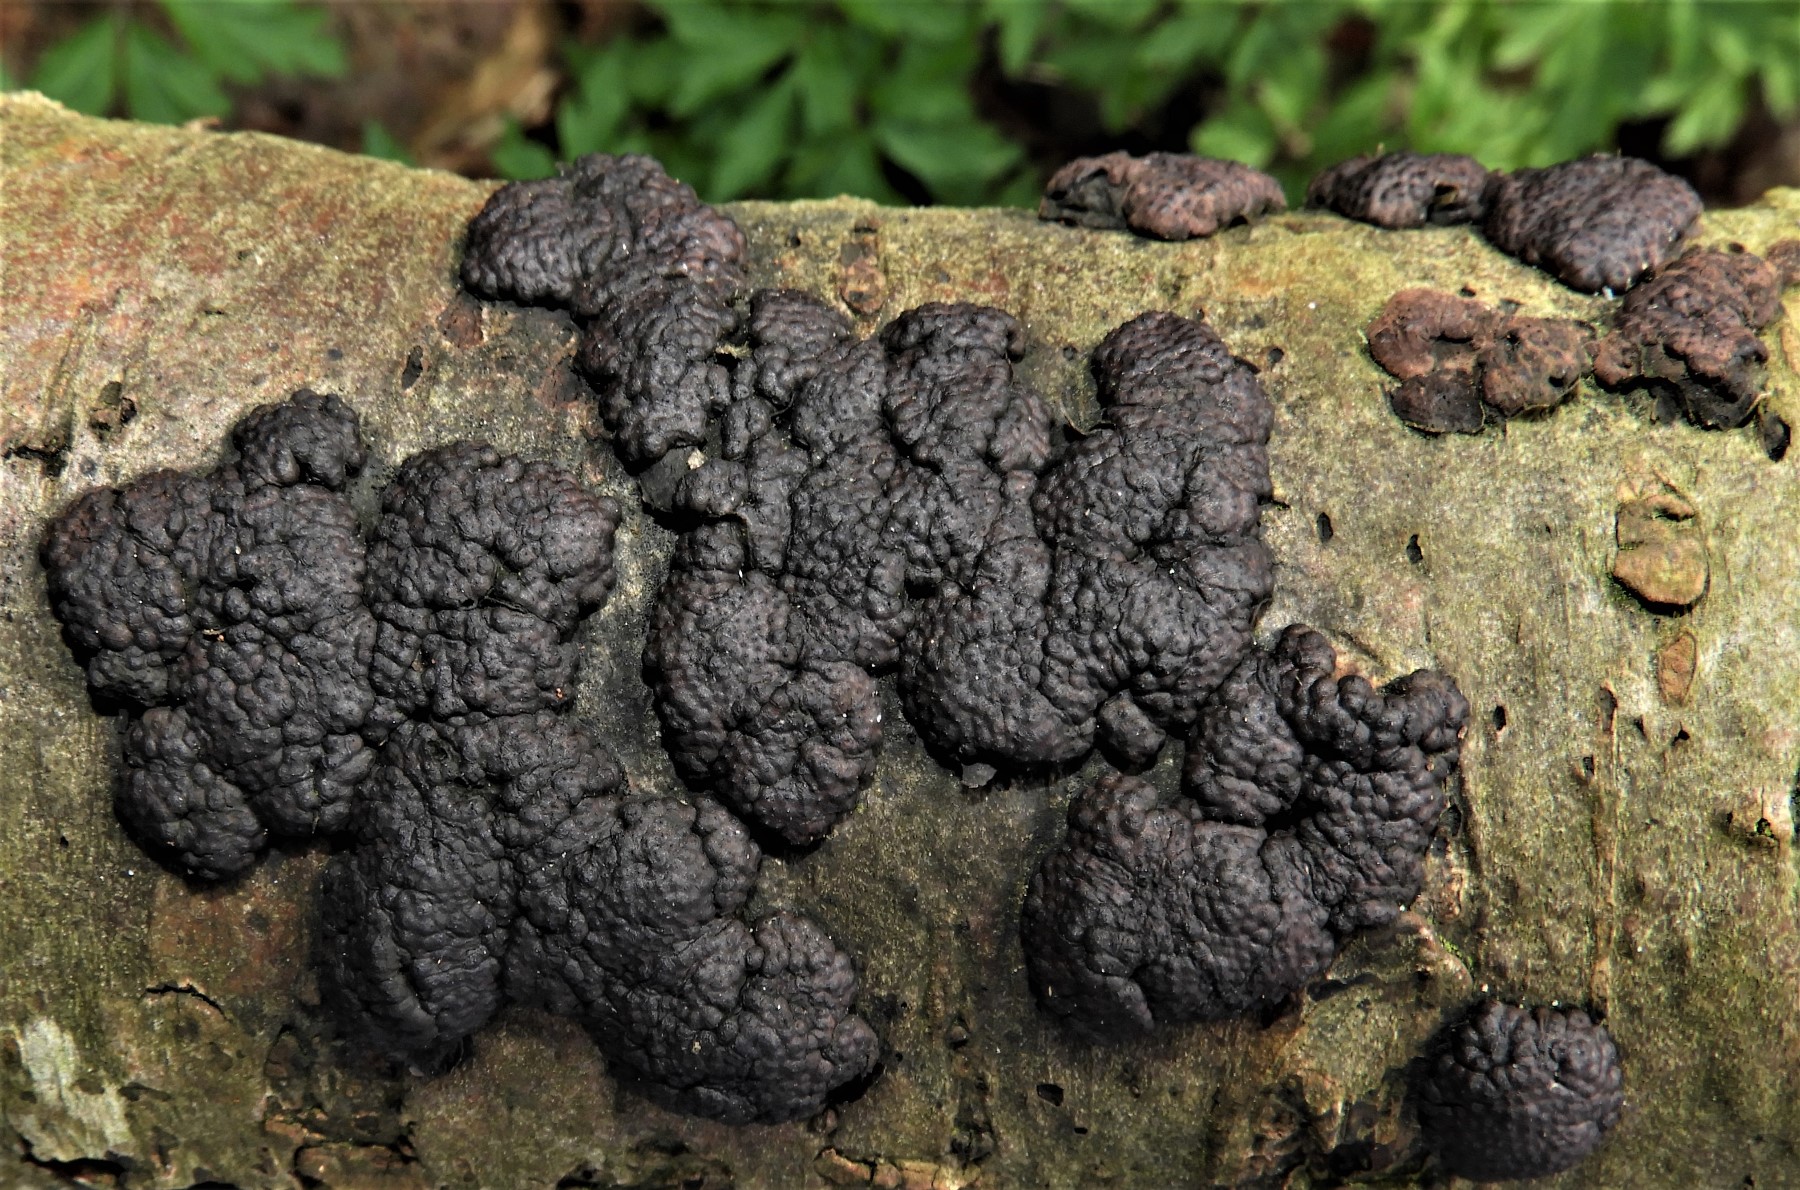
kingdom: Fungi
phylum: Ascomycota
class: Sordariomycetes
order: Xylariales
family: Hypoxylaceae
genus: Jackrogersella
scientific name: Jackrogersella multiformis
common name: foranderlig kulbær
